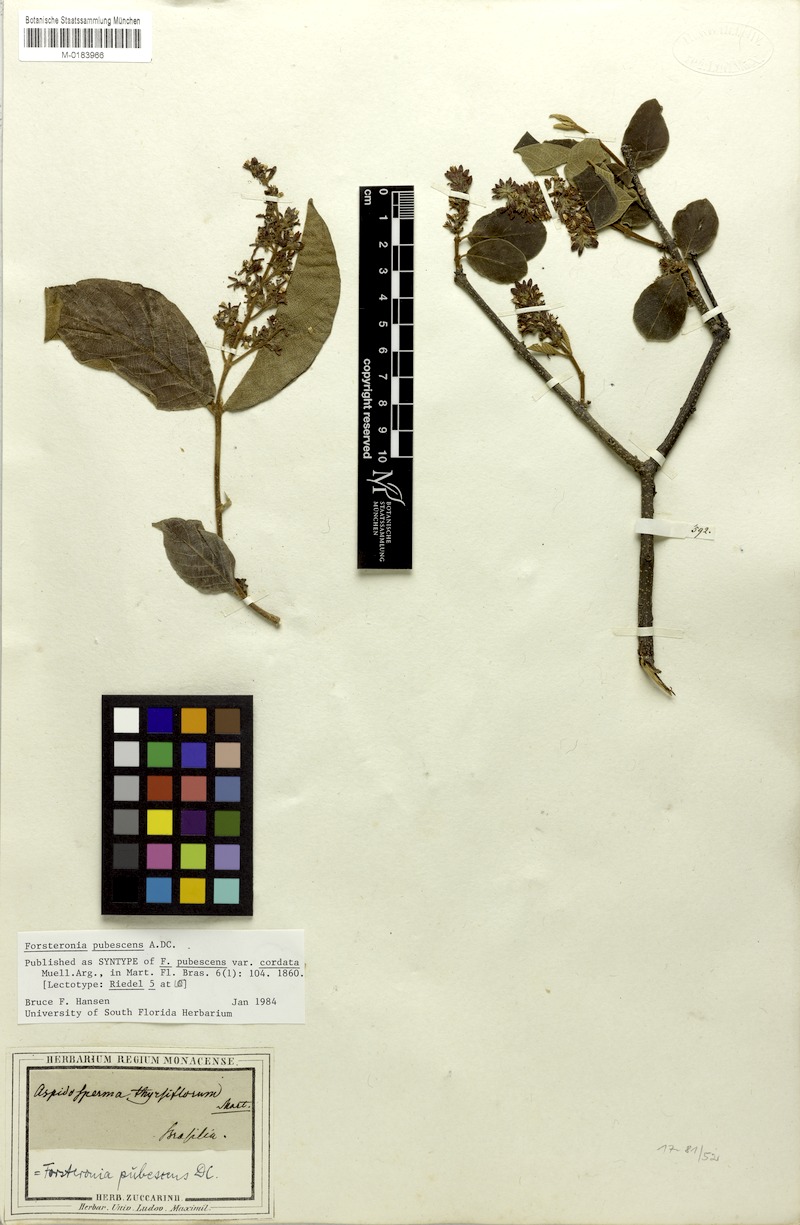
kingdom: Plantae
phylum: Tracheophyta
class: Magnoliopsida
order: Gentianales
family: Apocynaceae
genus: Forsteronia
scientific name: Forsteronia pubescens
